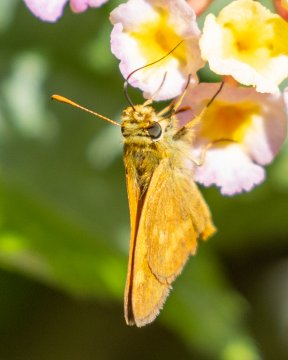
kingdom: Animalia
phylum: Arthropoda
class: Insecta
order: Lepidoptera
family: Hesperiidae
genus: Ochlodes
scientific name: Ochlodes sylvanoides
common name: Woodland Skipper
